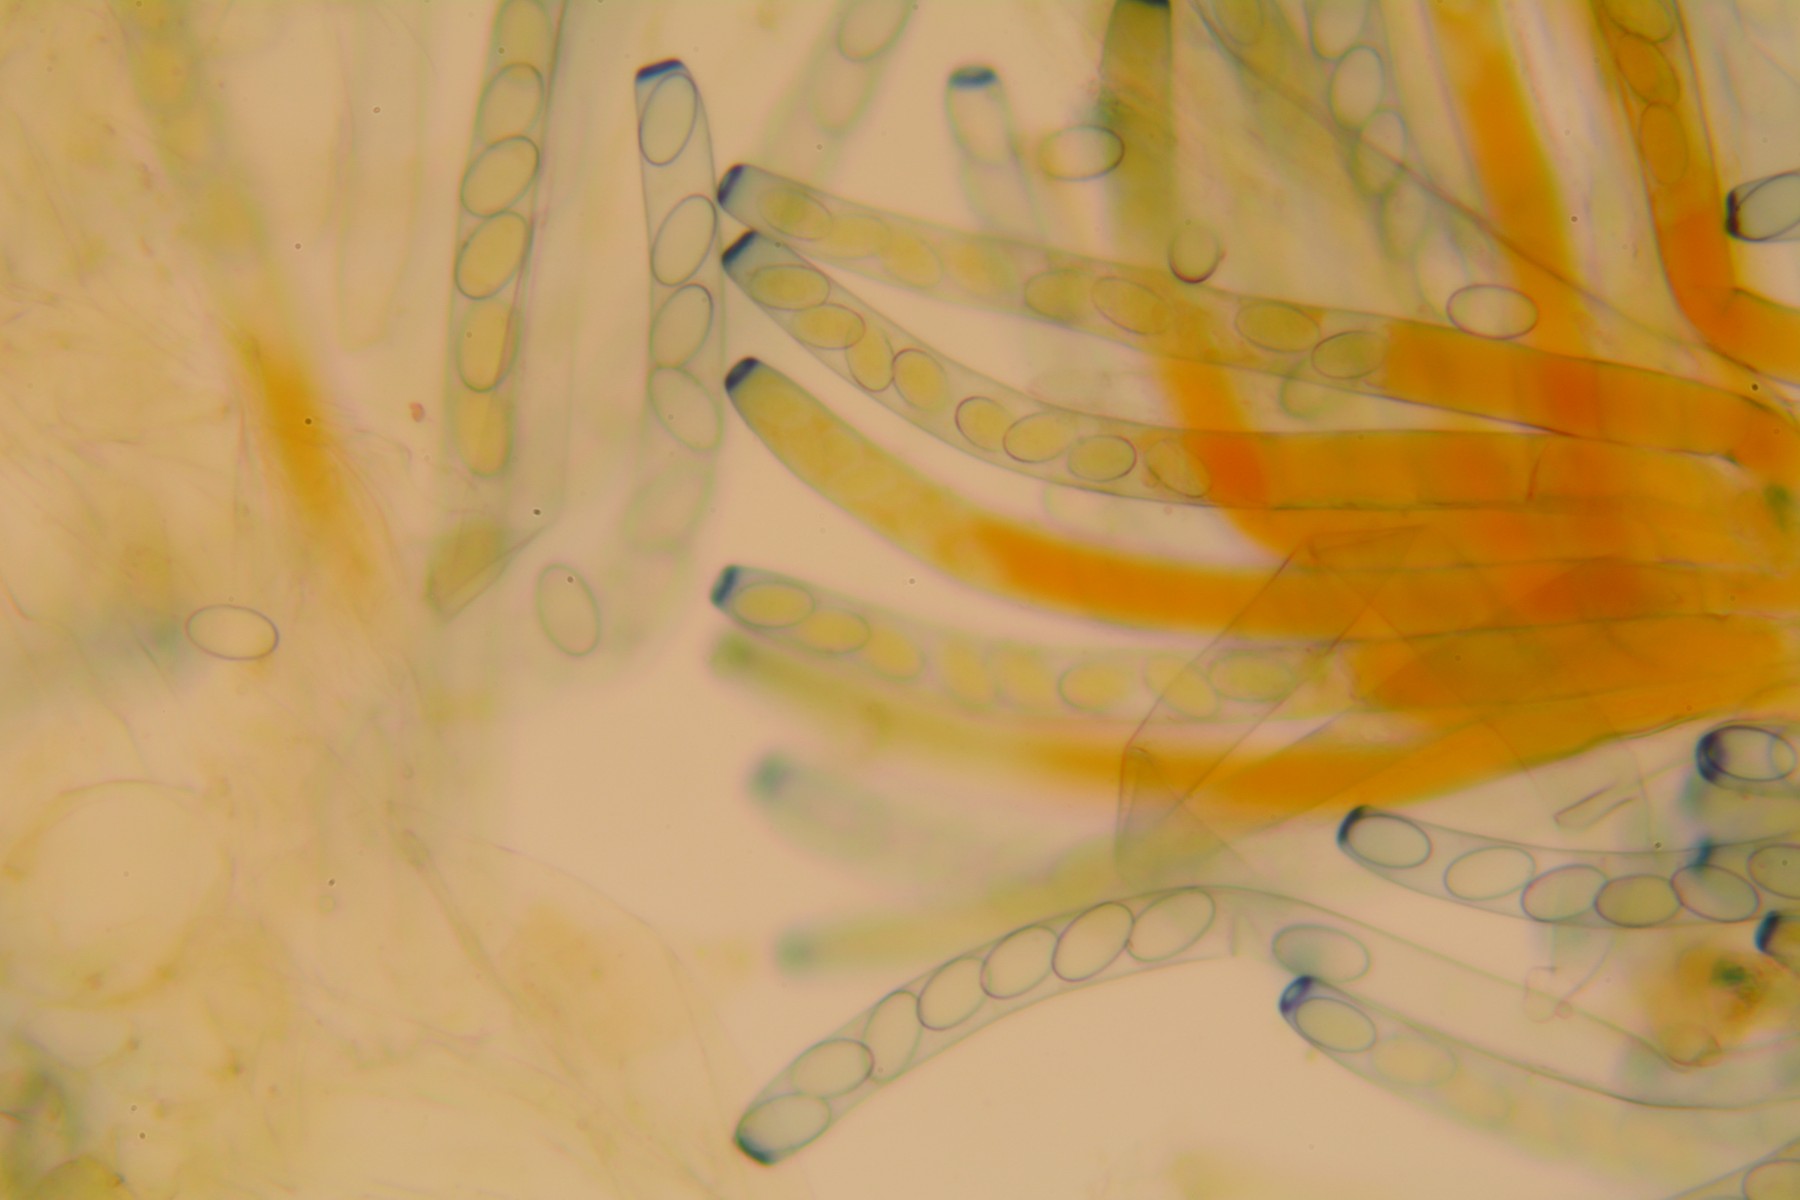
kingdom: Fungi
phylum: Ascomycota
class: Pezizomycetes
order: Pezizales
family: Pezizaceae
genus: Peziza
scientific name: Peziza vesiculosa
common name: blære-bægersvamp
